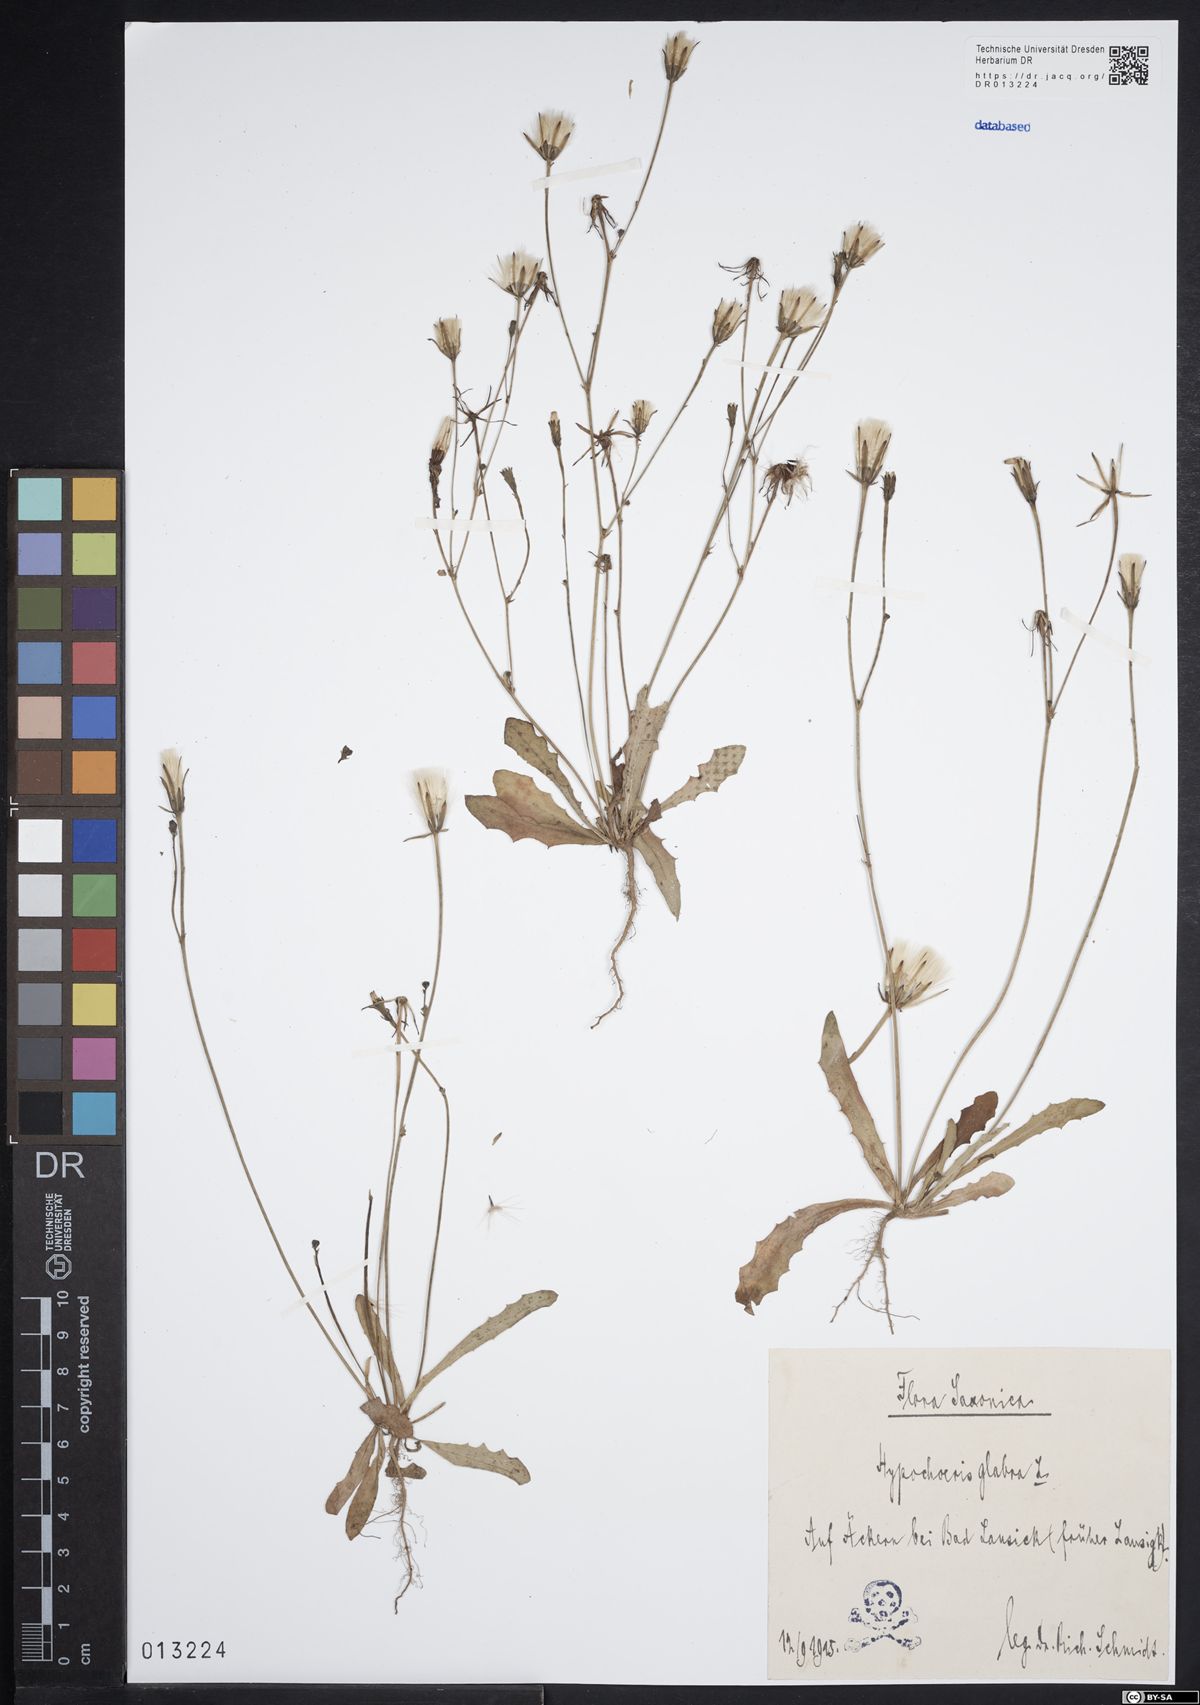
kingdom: Plantae
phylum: Tracheophyta
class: Magnoliopsida
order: Asterales
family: Asteraceae
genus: Hypochaeris
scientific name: Hypochaeris glabra
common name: Smooth catsear
